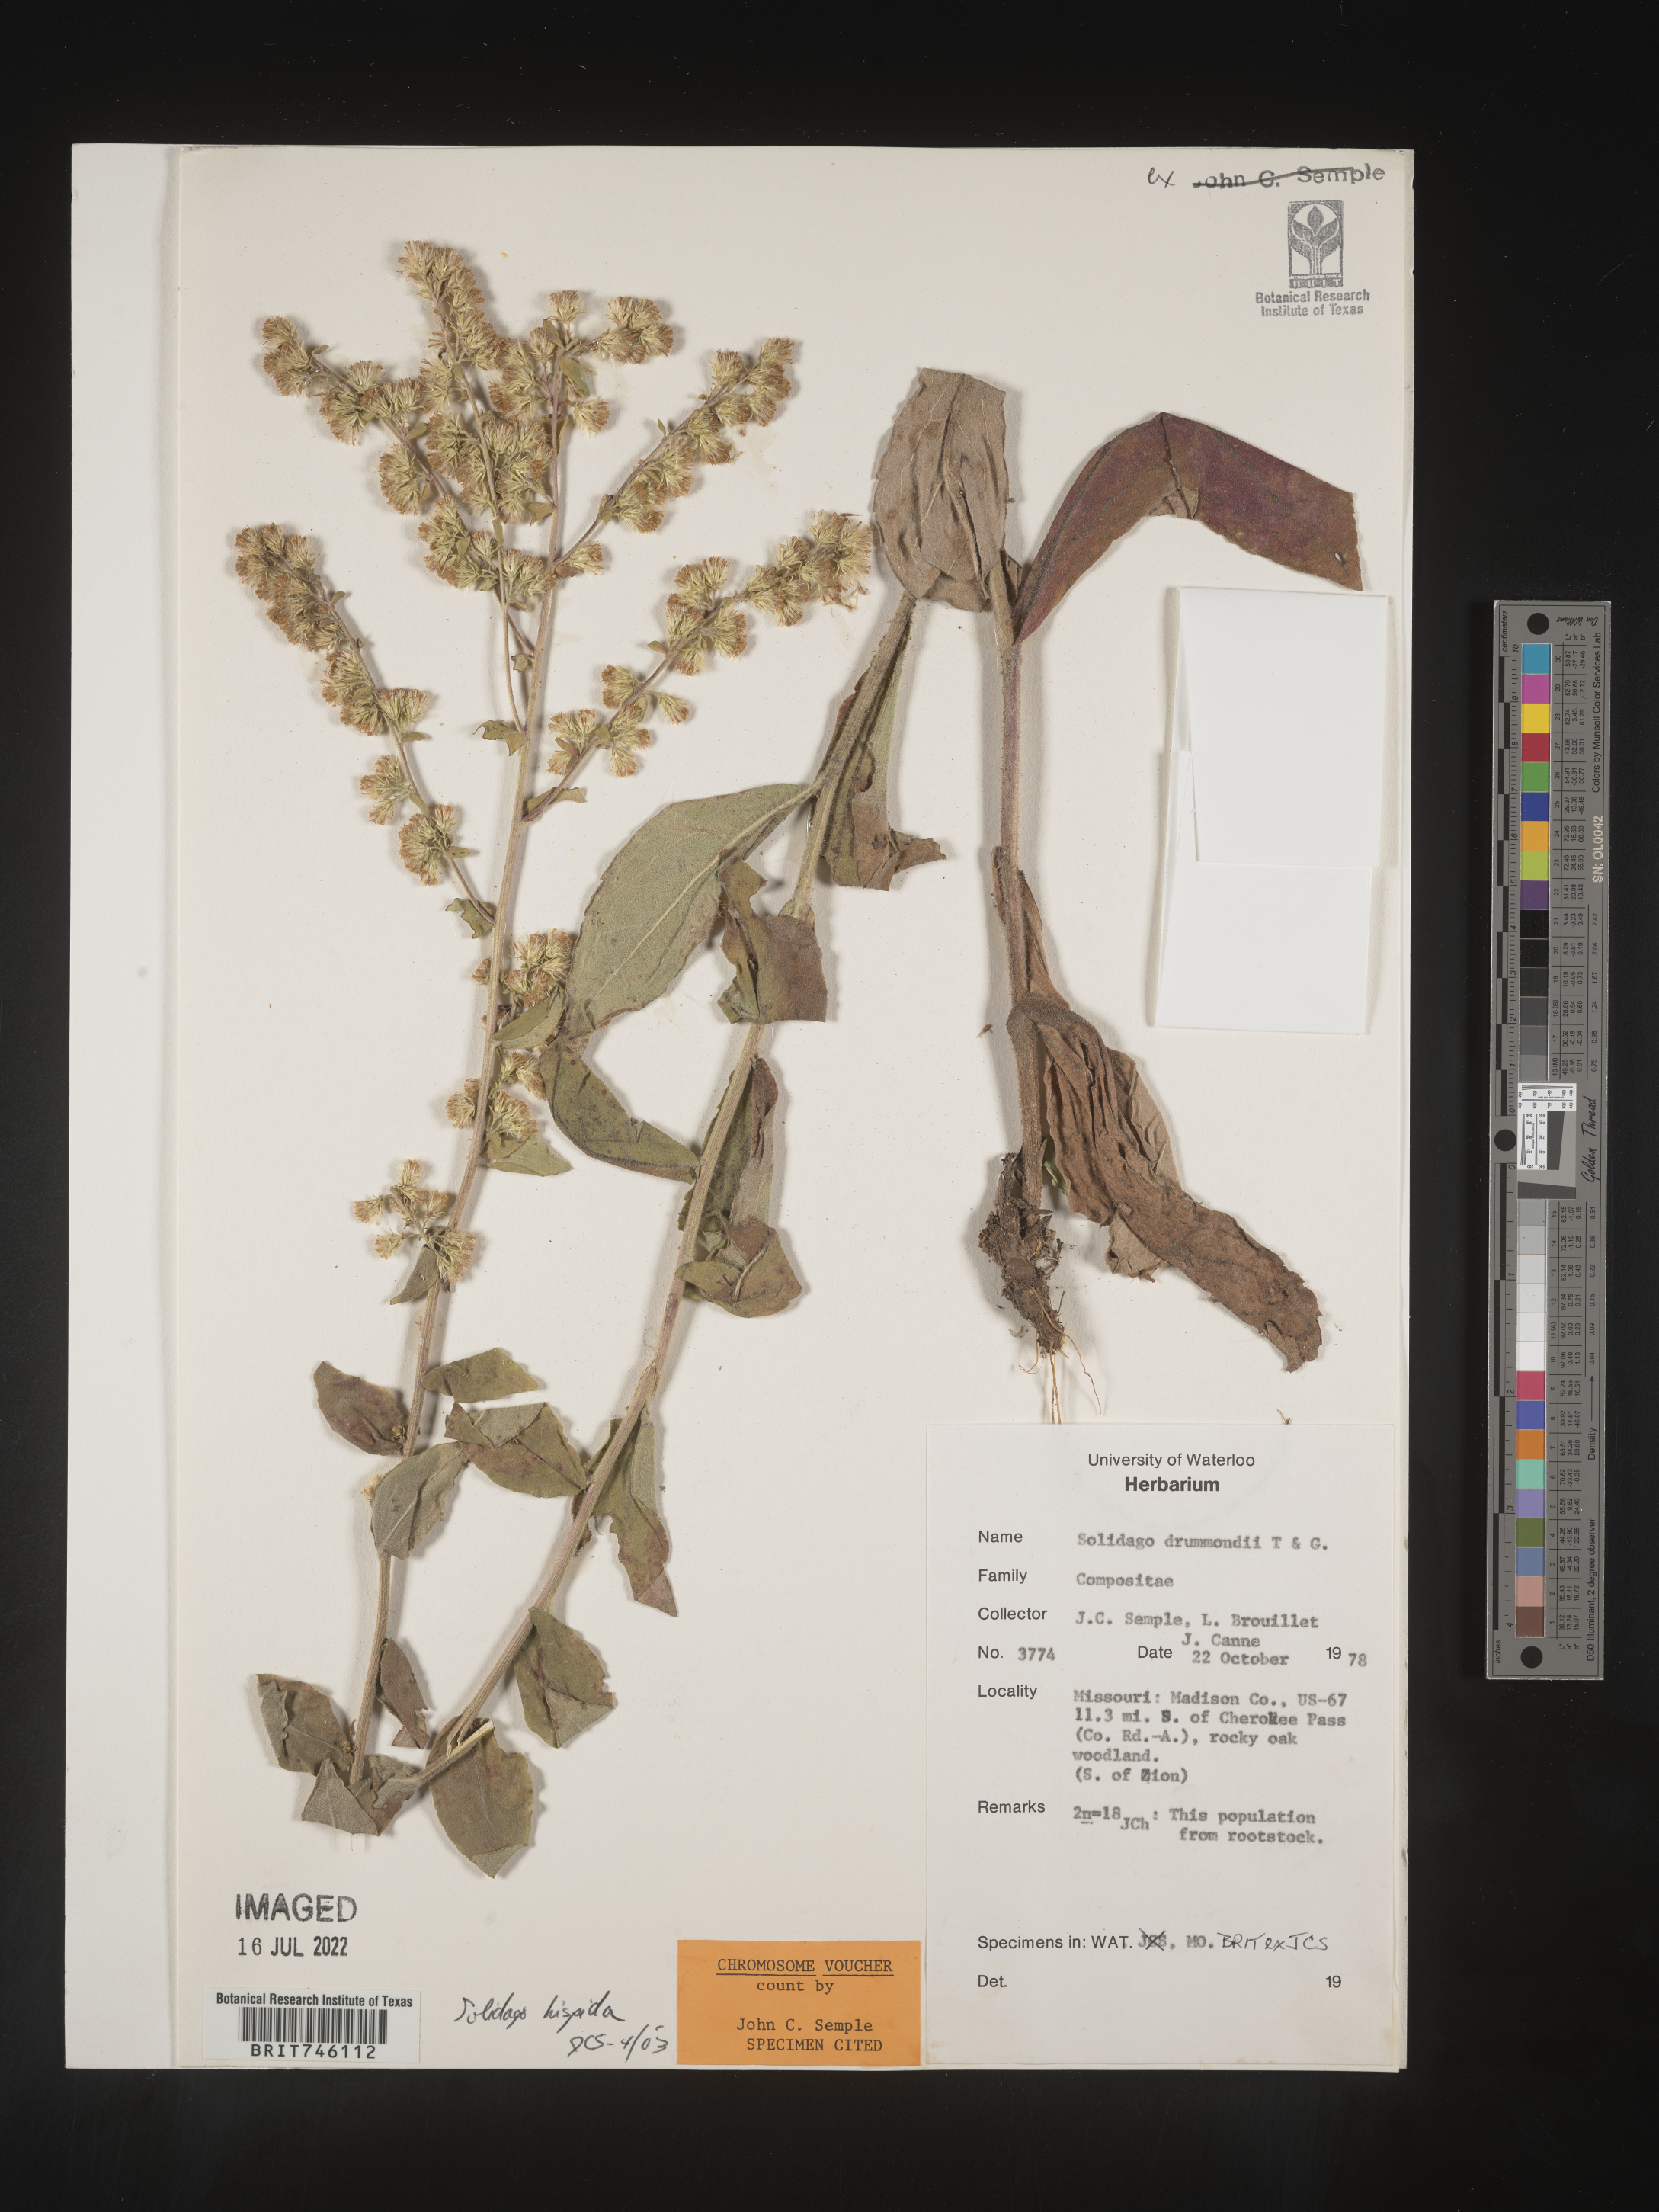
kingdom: Plantae
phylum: Tracheophyta
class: Magnoliopsida
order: Asterales
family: Asteraceae
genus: Solidago
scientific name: Solidago drummondii
